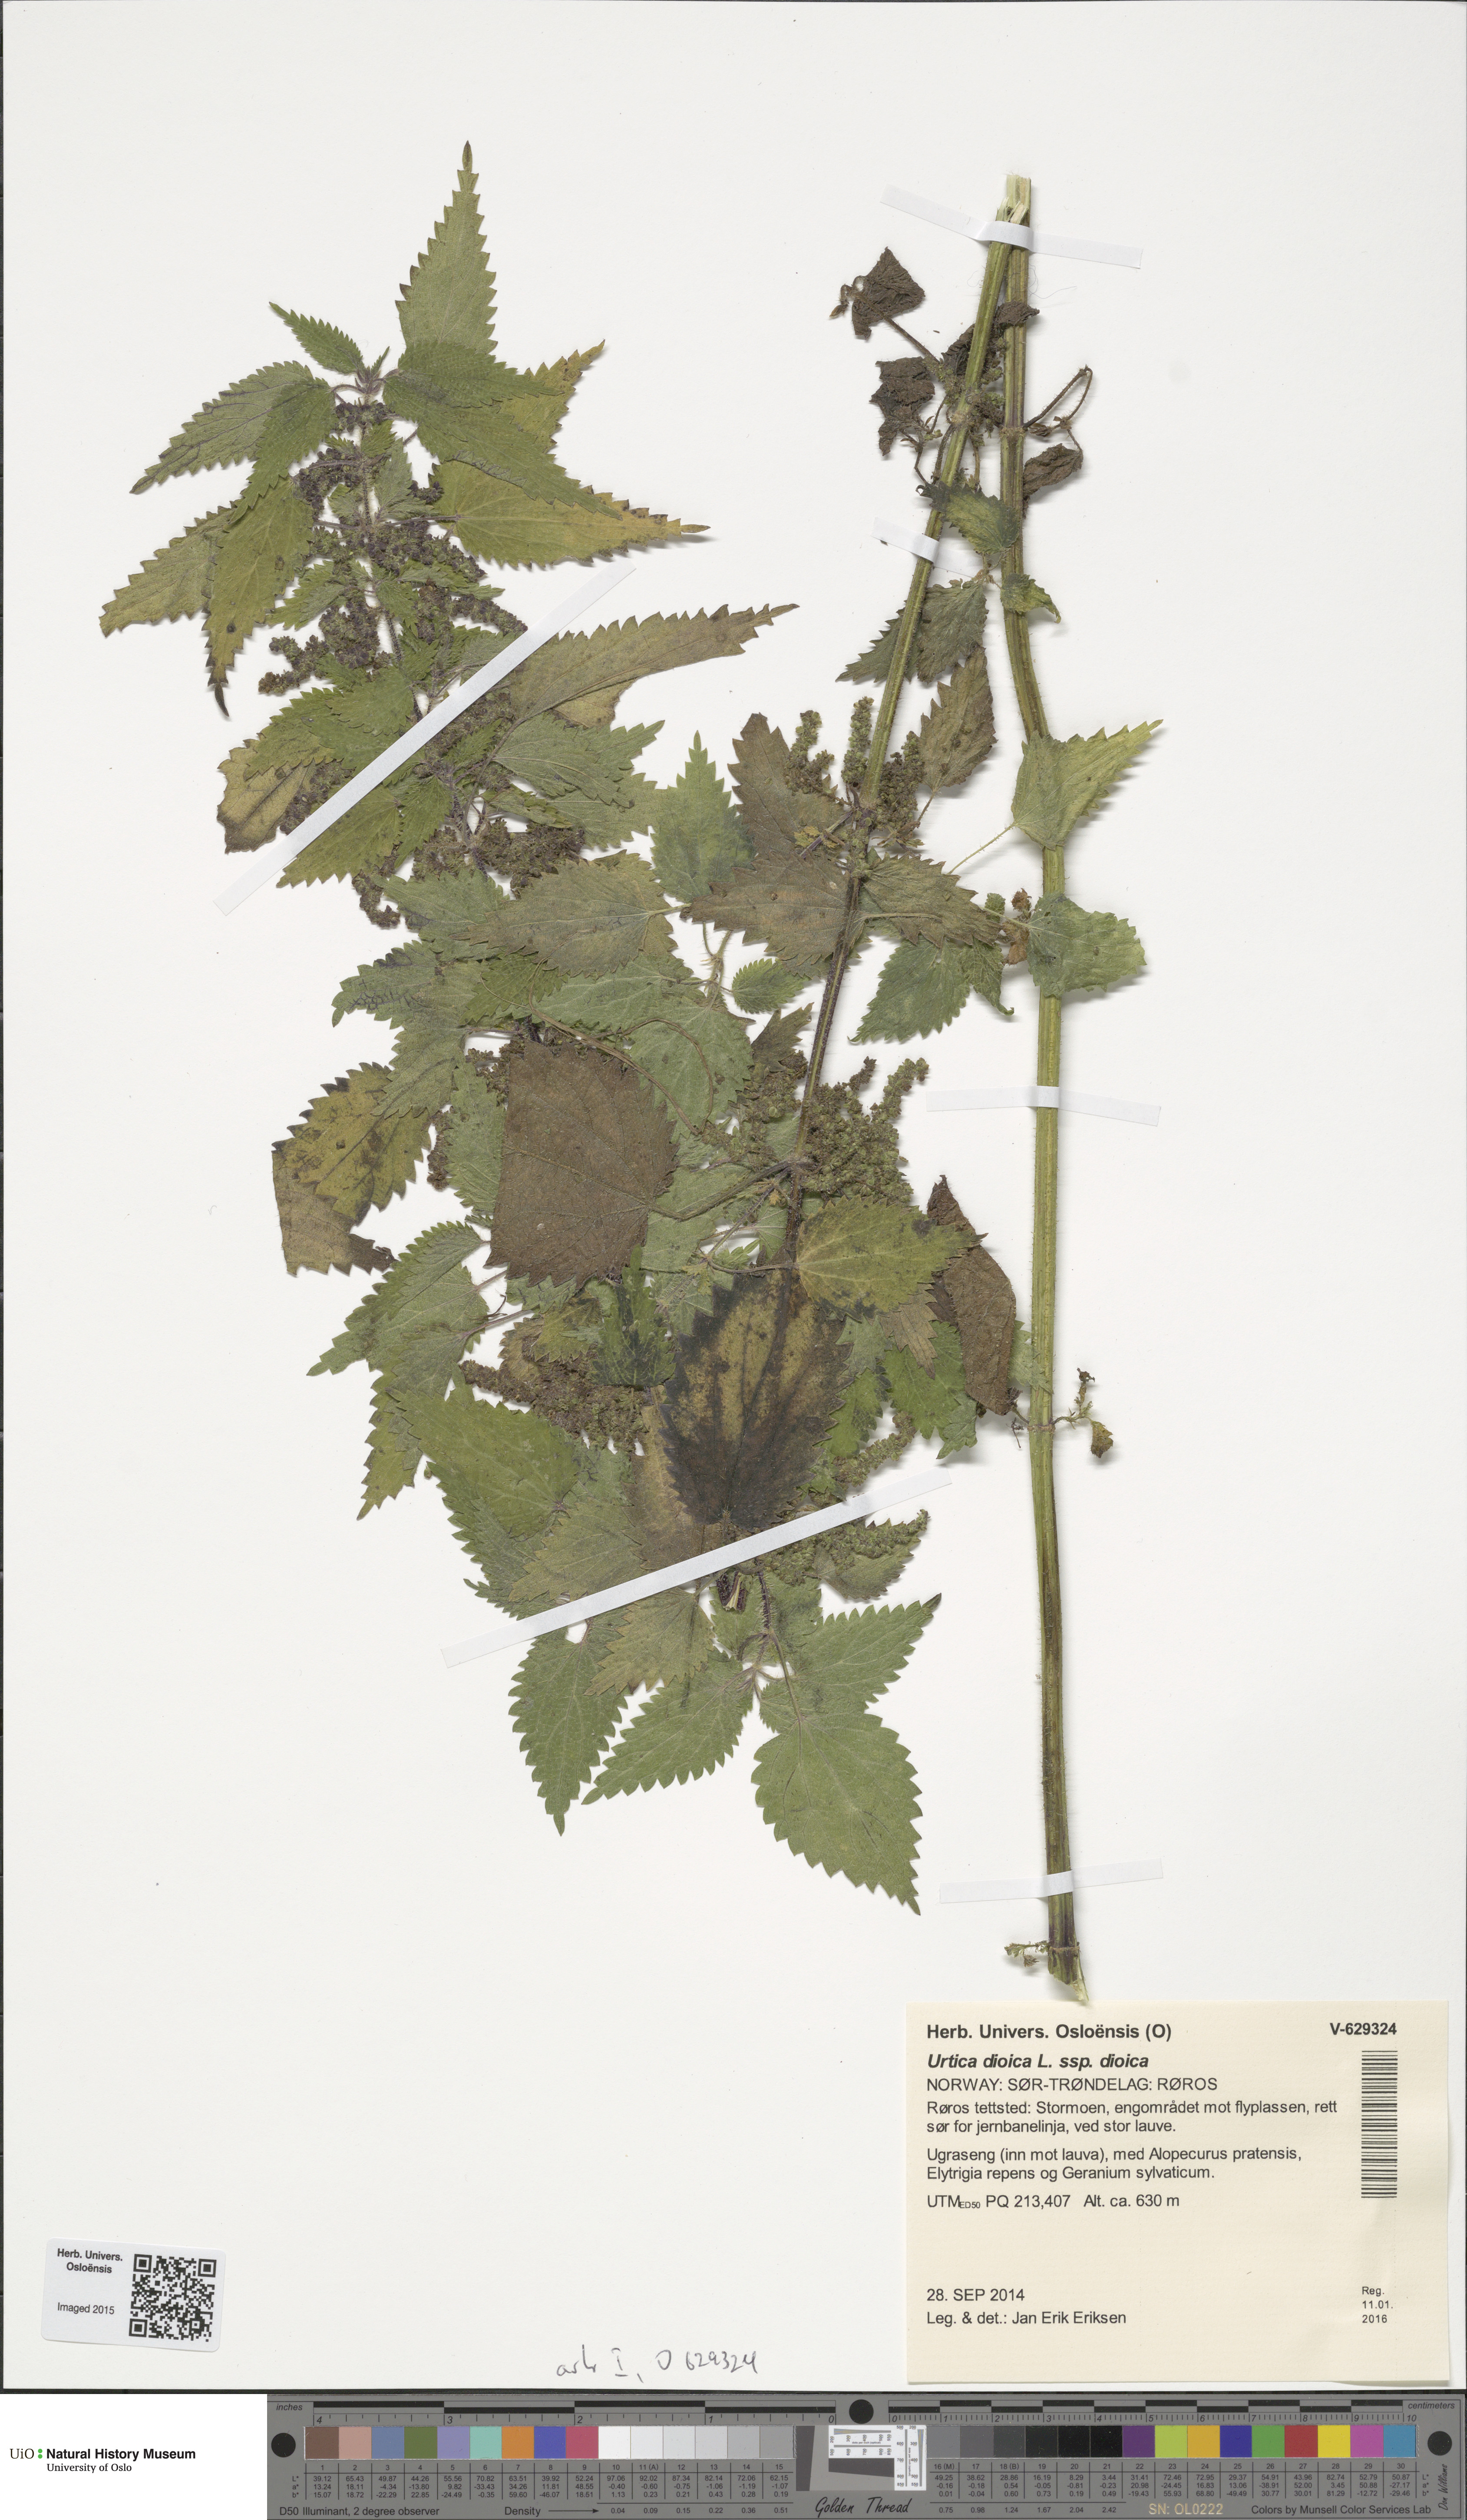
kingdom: Plantae
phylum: Tracheophyta
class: Magnoliopsida
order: Rosales
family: Urticaceae
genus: Urtica
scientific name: Urtica dioica
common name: Common nettle
